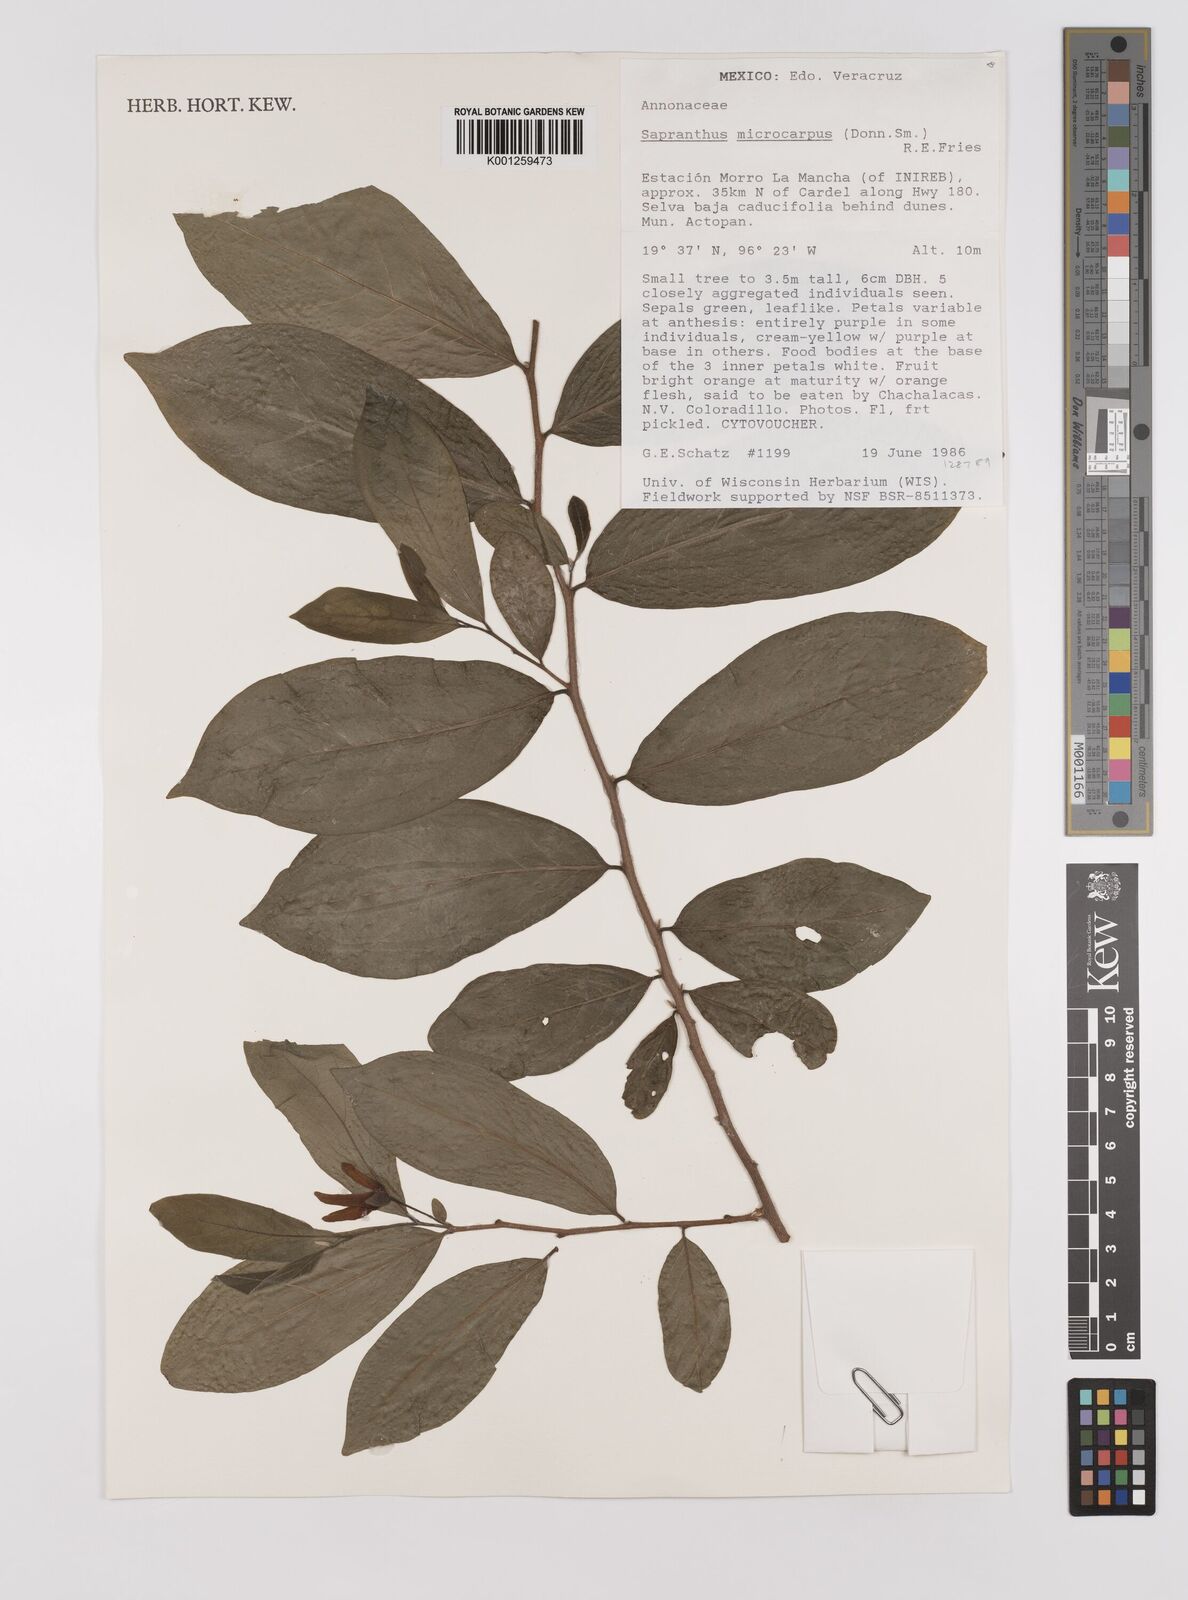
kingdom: Plantae
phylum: Tracheophyta
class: Magnoliopsida
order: Magnoliales
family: Annonaceae
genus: Sapranthus
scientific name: Sapranthus microcarpus
